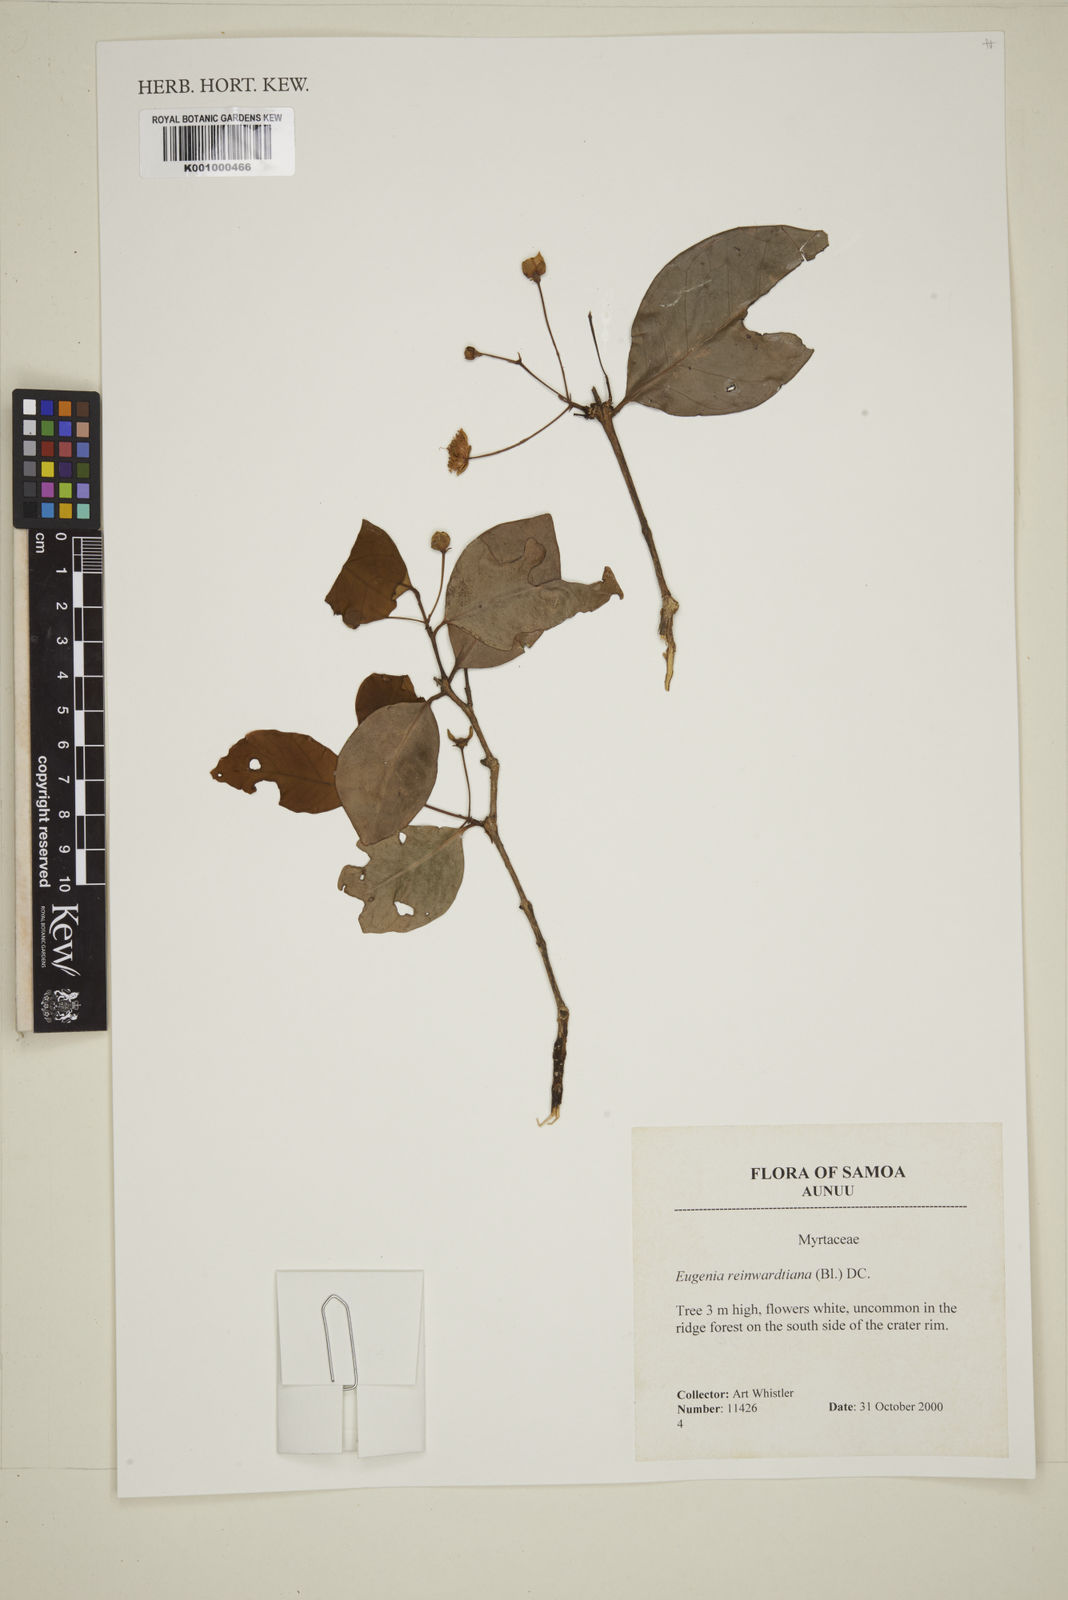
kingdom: Plantae
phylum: Tracheophyta
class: Magnoliopsida
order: Myrtales
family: Myrtaceae
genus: Eugenia
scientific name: Eugenia reinwardtiana
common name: Cedar bay-cherry
